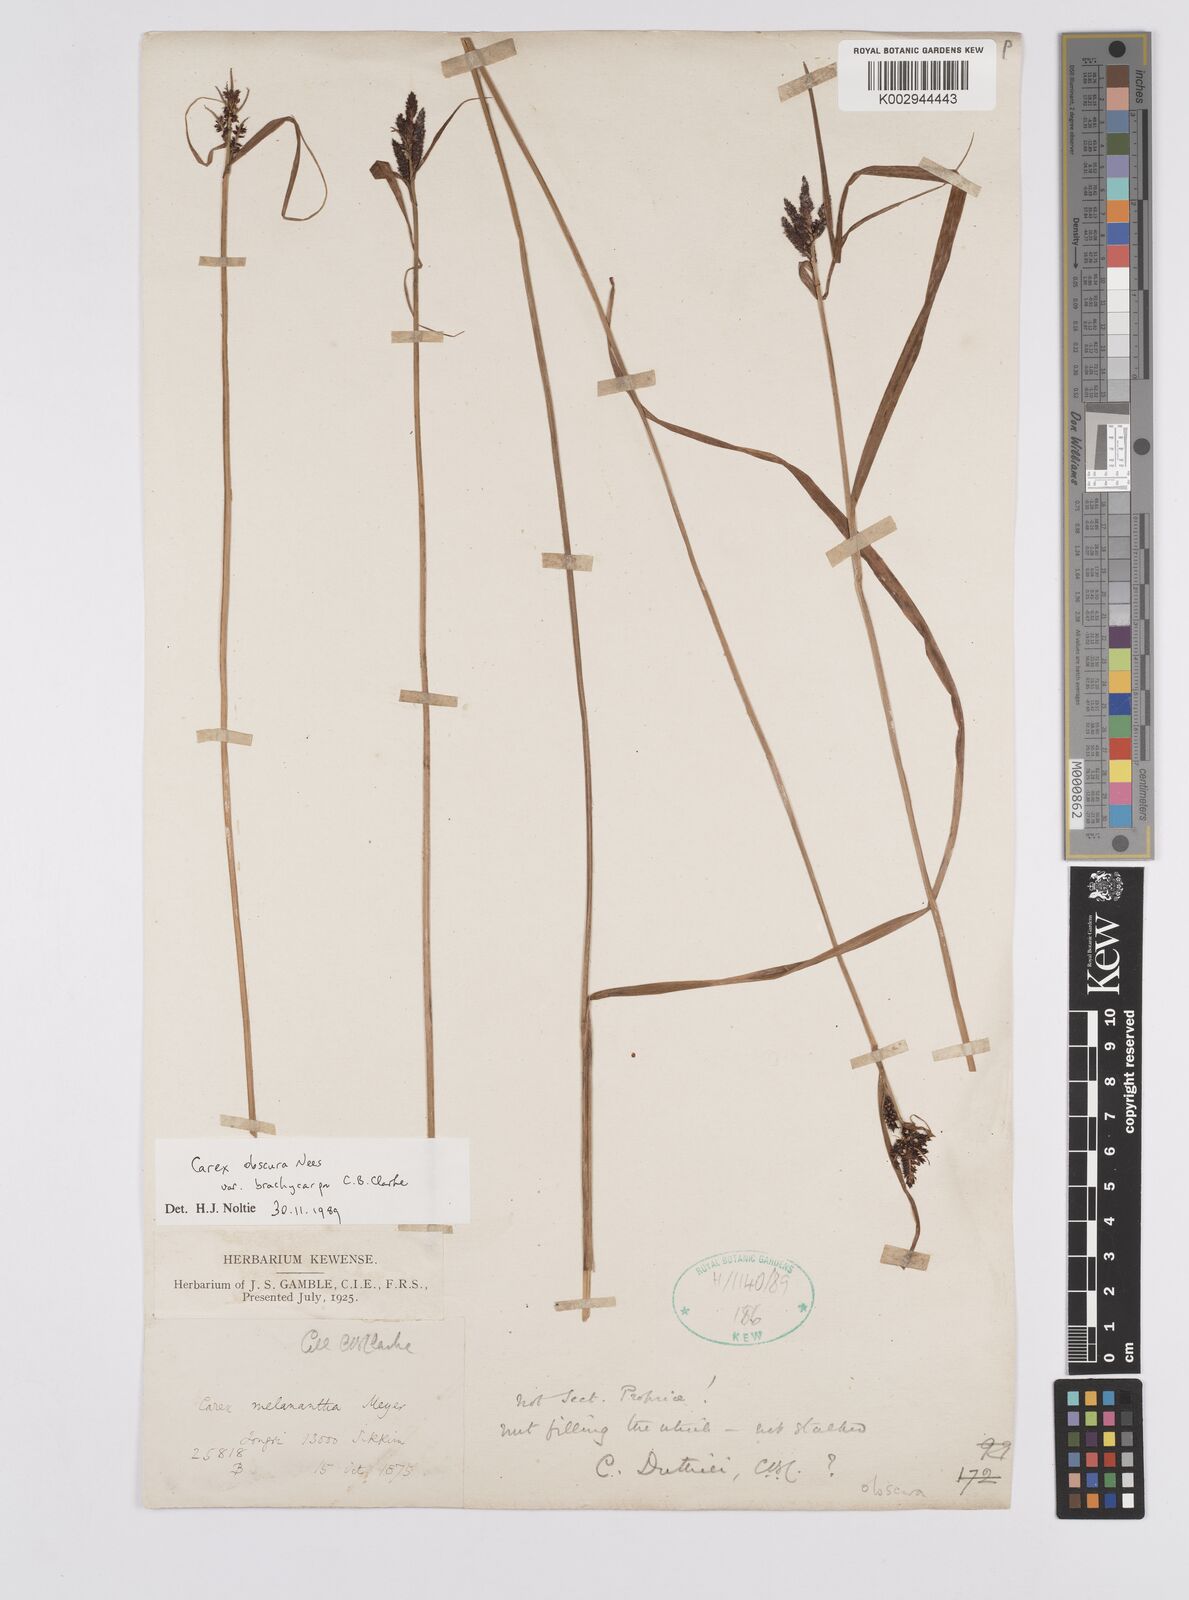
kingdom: Plantae
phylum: Tracheophyta
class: Liliopsida
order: Poales
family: Cyperaceae
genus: Carex
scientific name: Carex obscura
